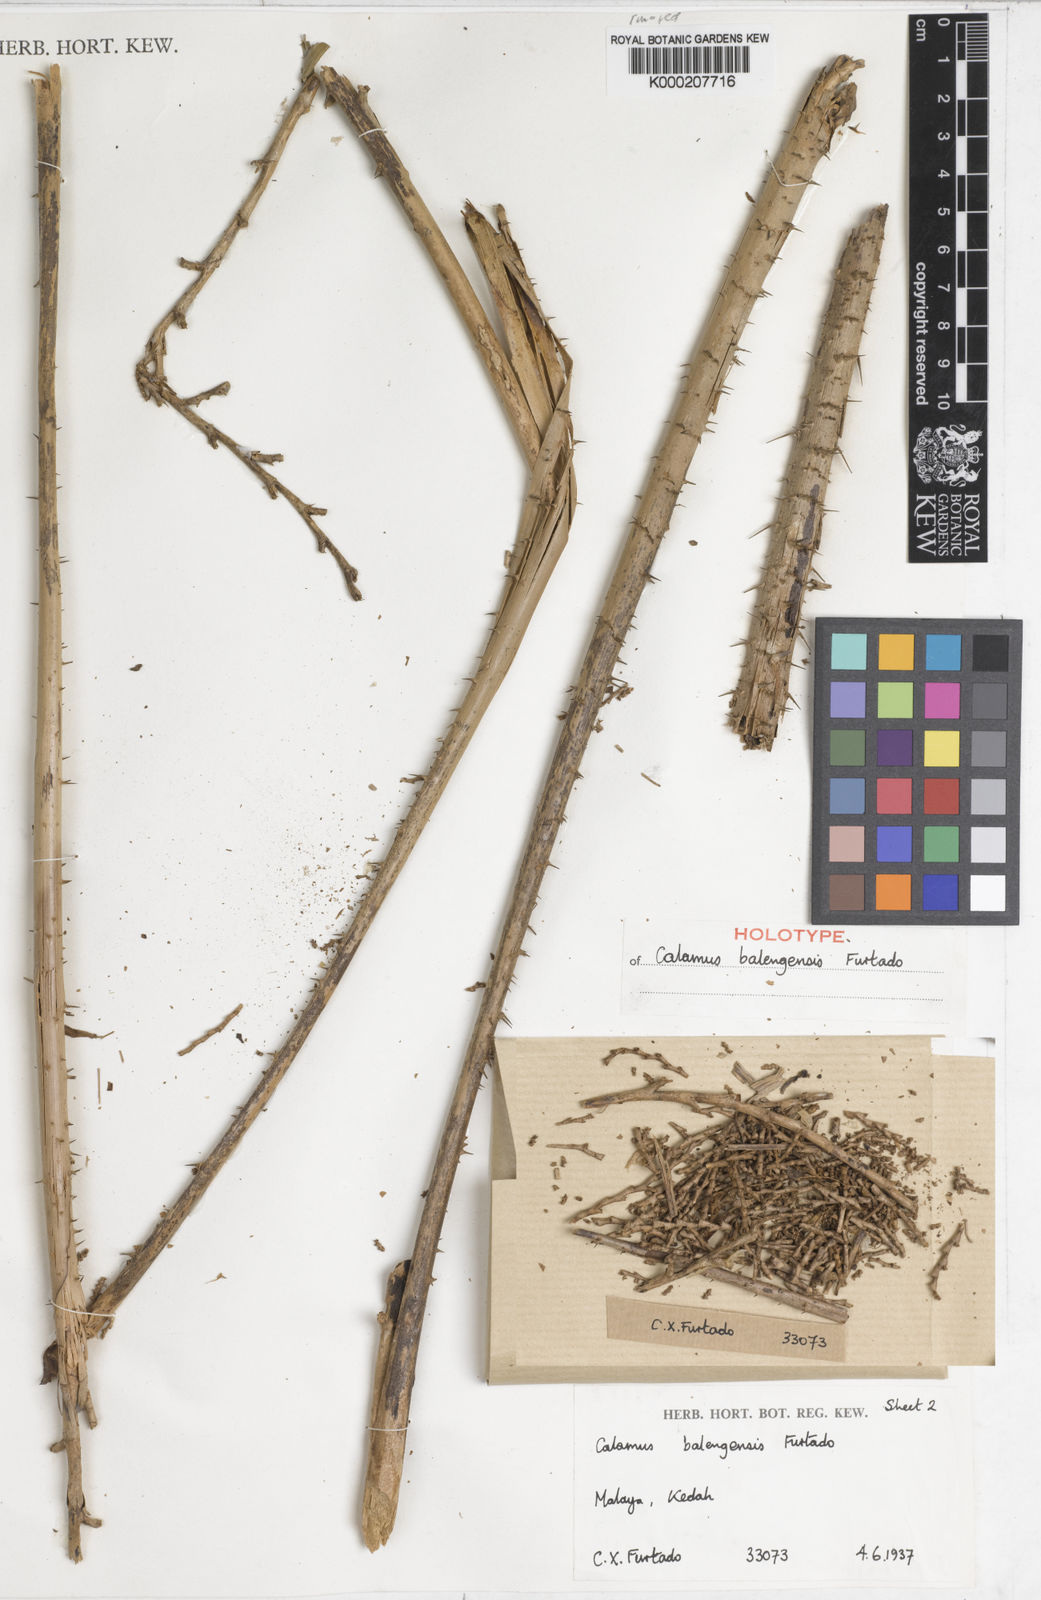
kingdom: Plantae
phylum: Tracheophyta
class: Liliopsida
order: Arecales
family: Arecaceae
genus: Calamus
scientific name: Calamus balingensis
